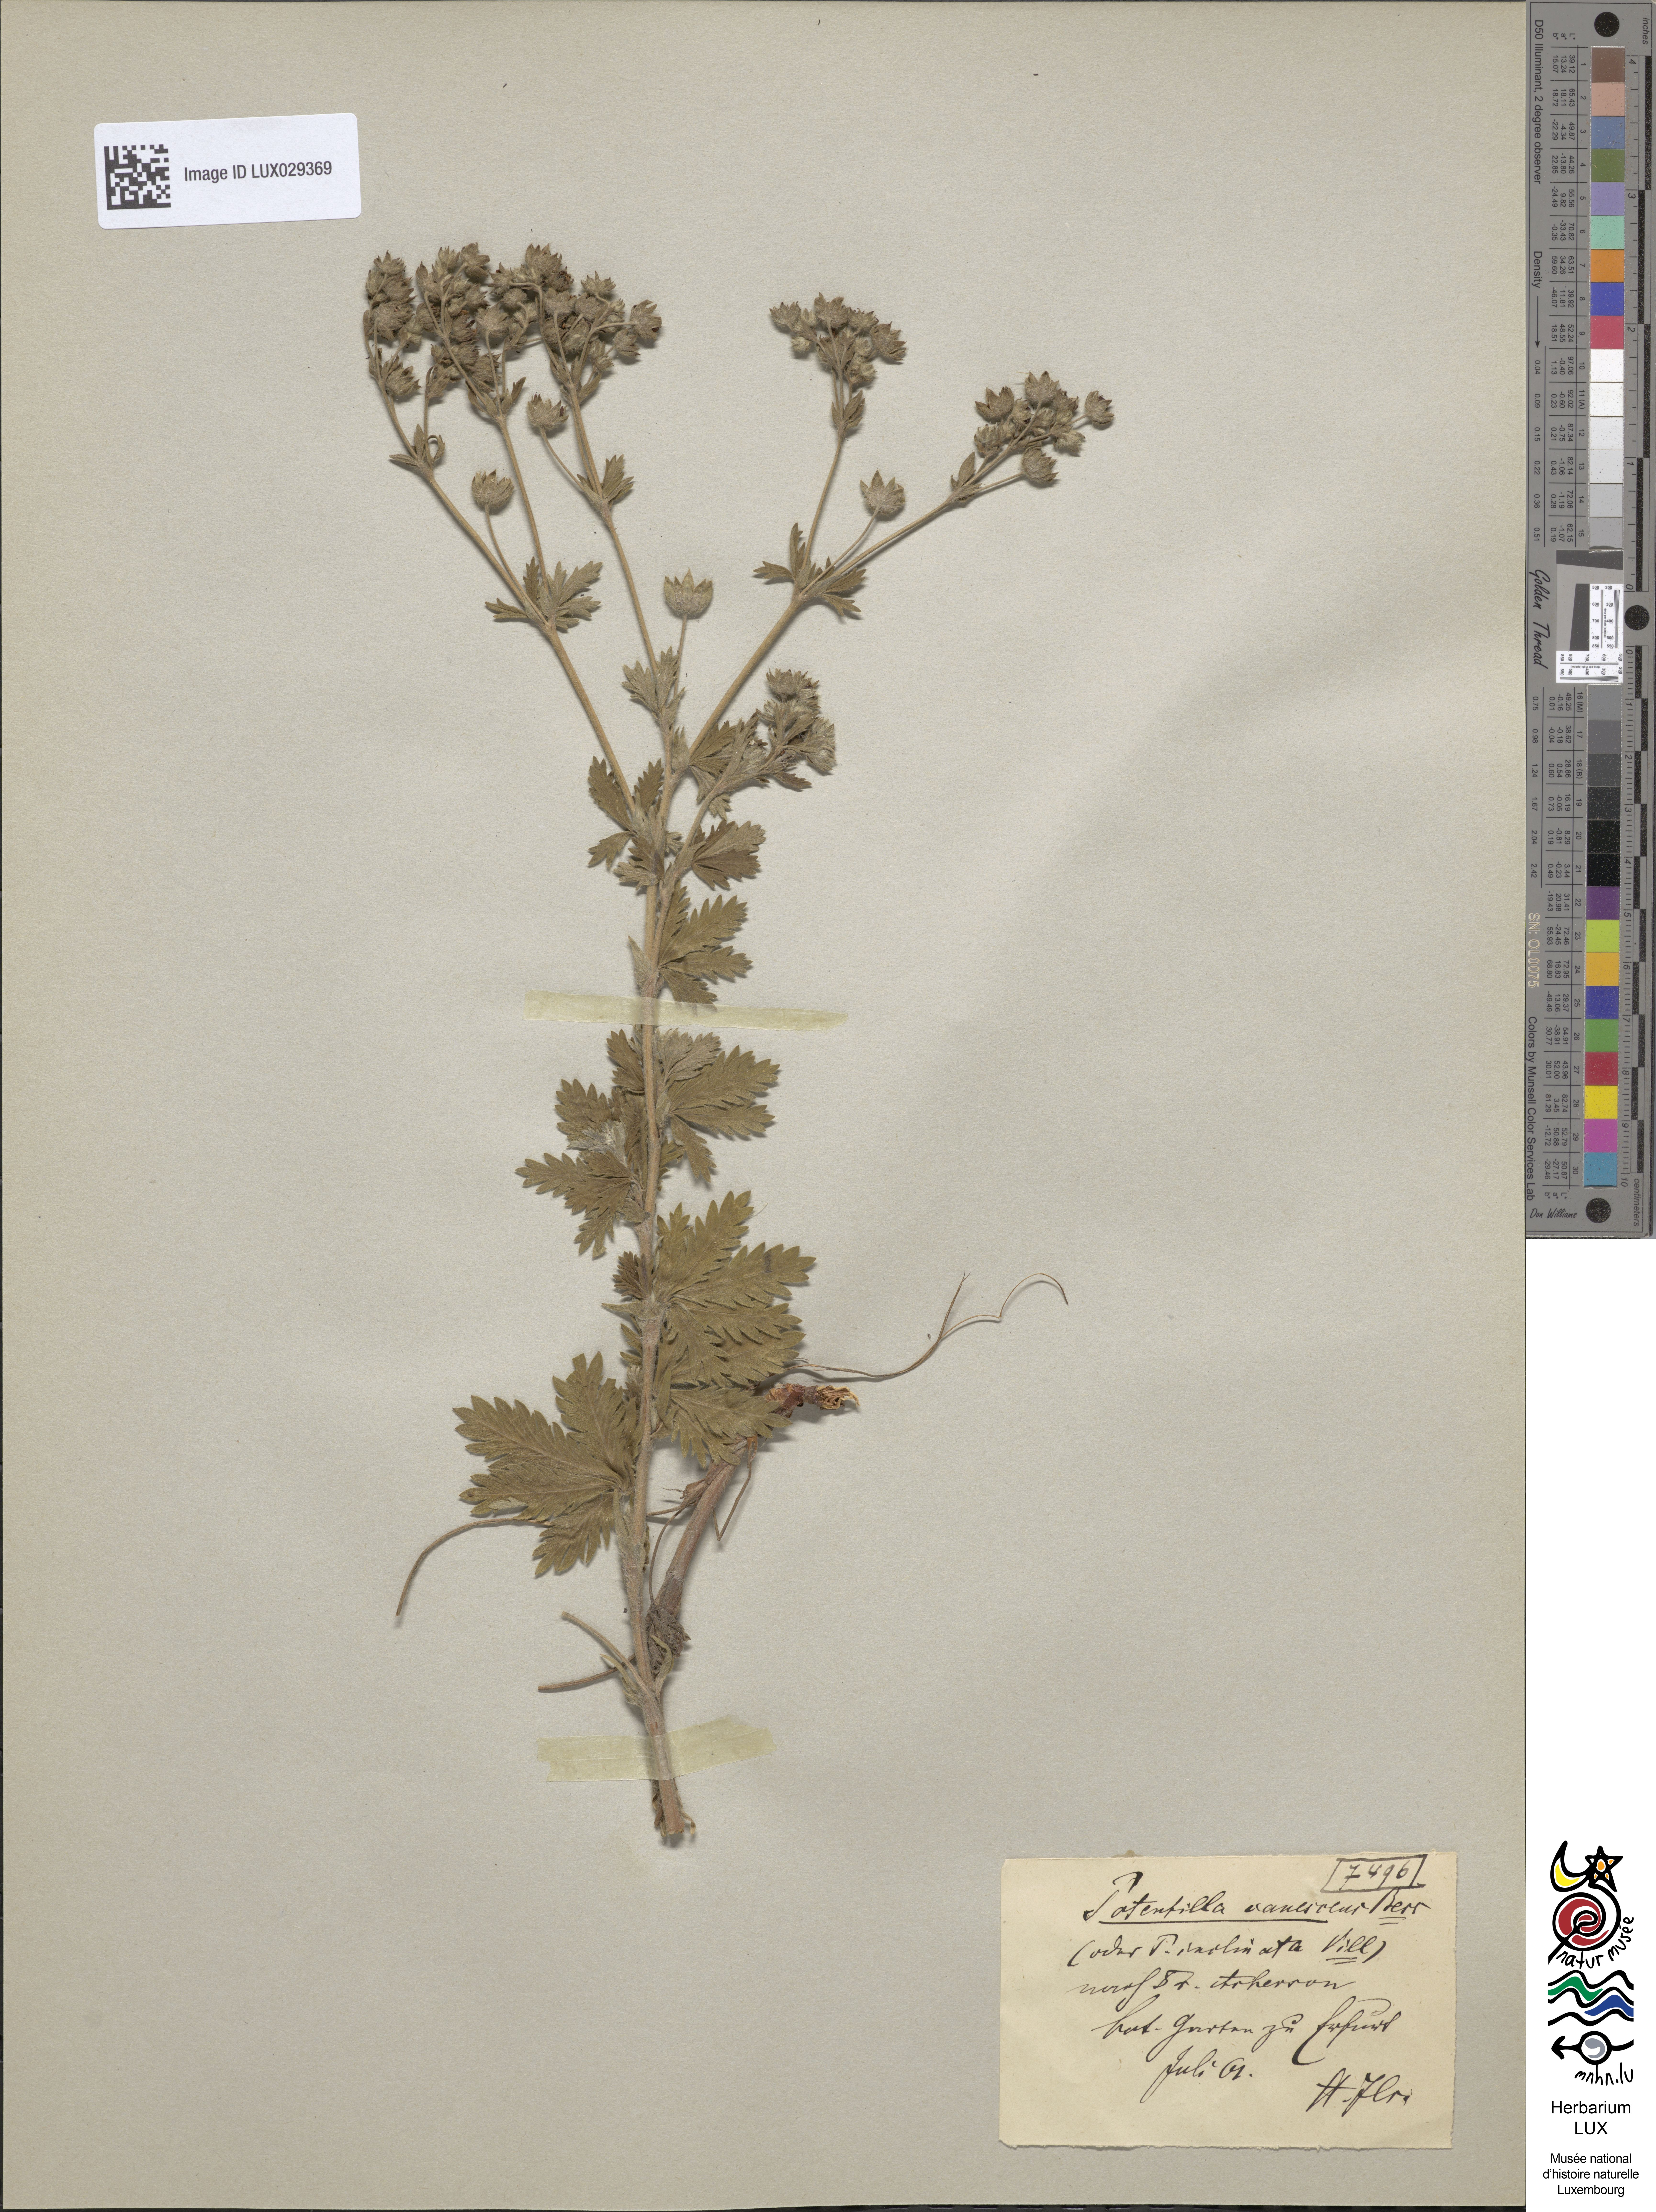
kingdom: Plantae
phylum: Tracheophyta
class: Magnoliopsida
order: Rosales
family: Rosaceae
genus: Potentilla
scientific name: Potentilla inclinata
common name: Grey cinquefoil
